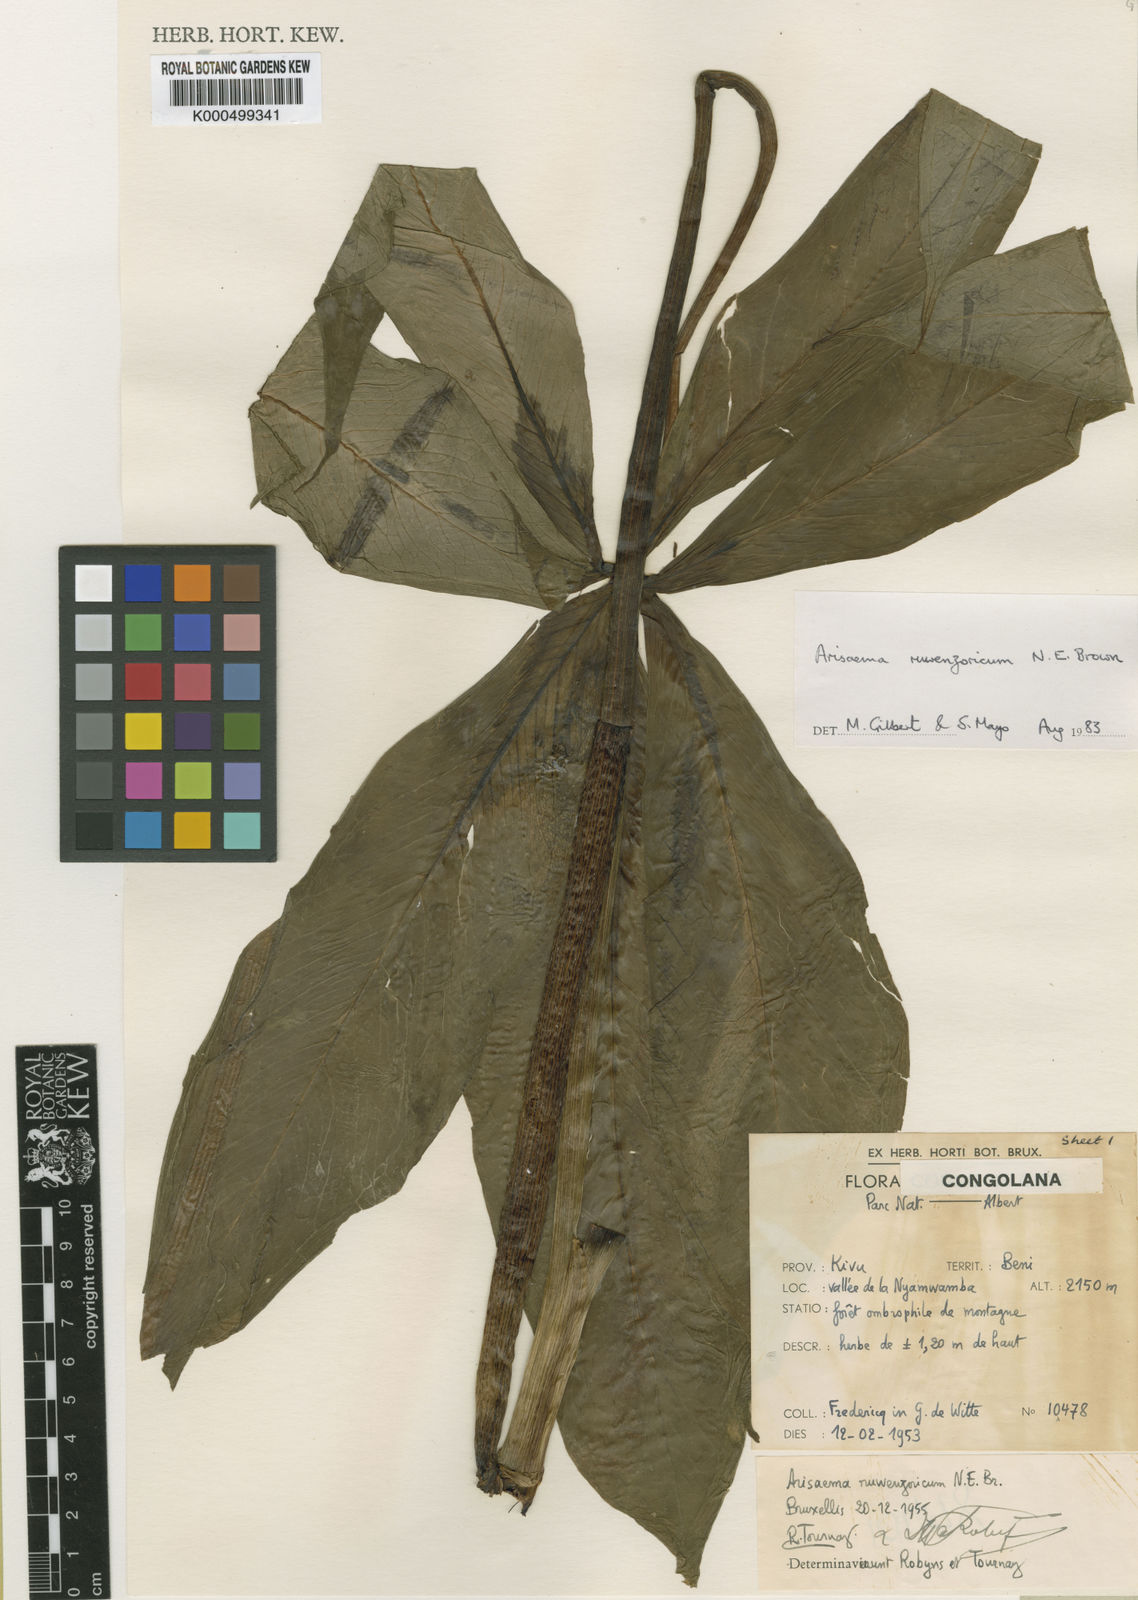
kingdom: Plantae
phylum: Tracheophyta
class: Liliopsida
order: Alismatales
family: Araceae
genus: Arisaema
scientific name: Arisaema
